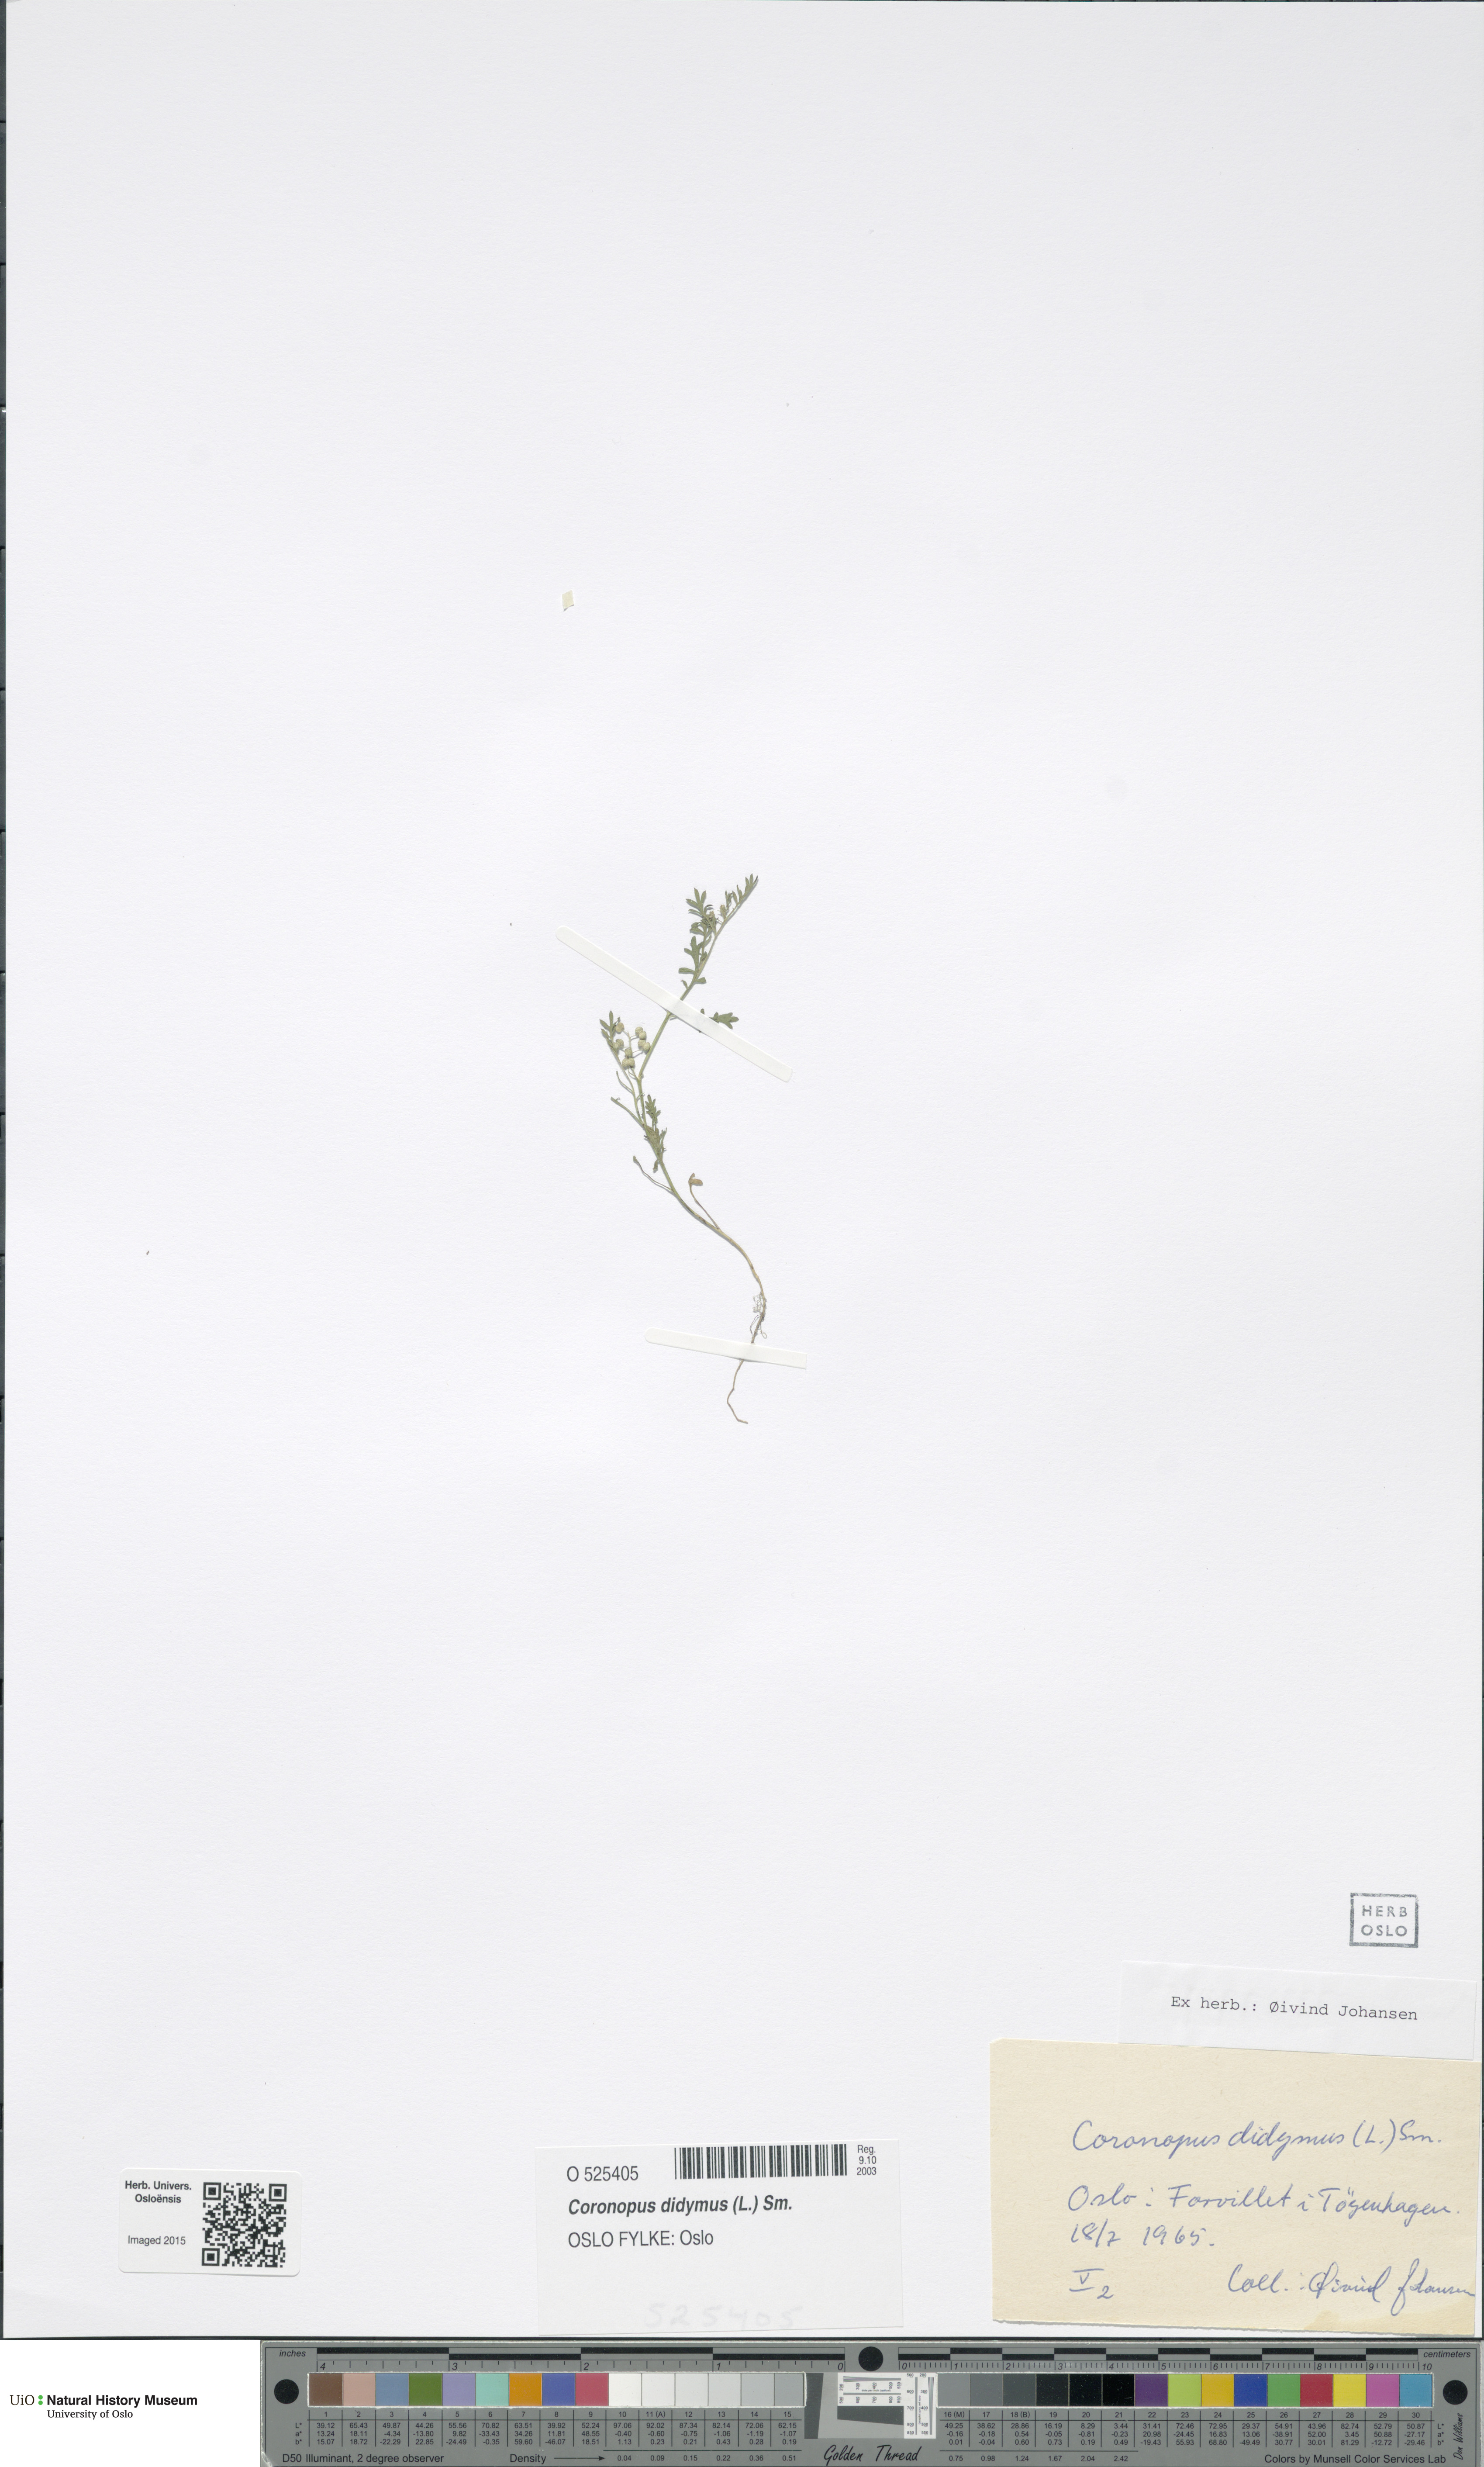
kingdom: Plantae
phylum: Tracheophyta
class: Magnoliopsida
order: Brassicales
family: Brassicaceae
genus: Lepidium
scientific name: Lepidium didymum
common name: Lesser swinecress
